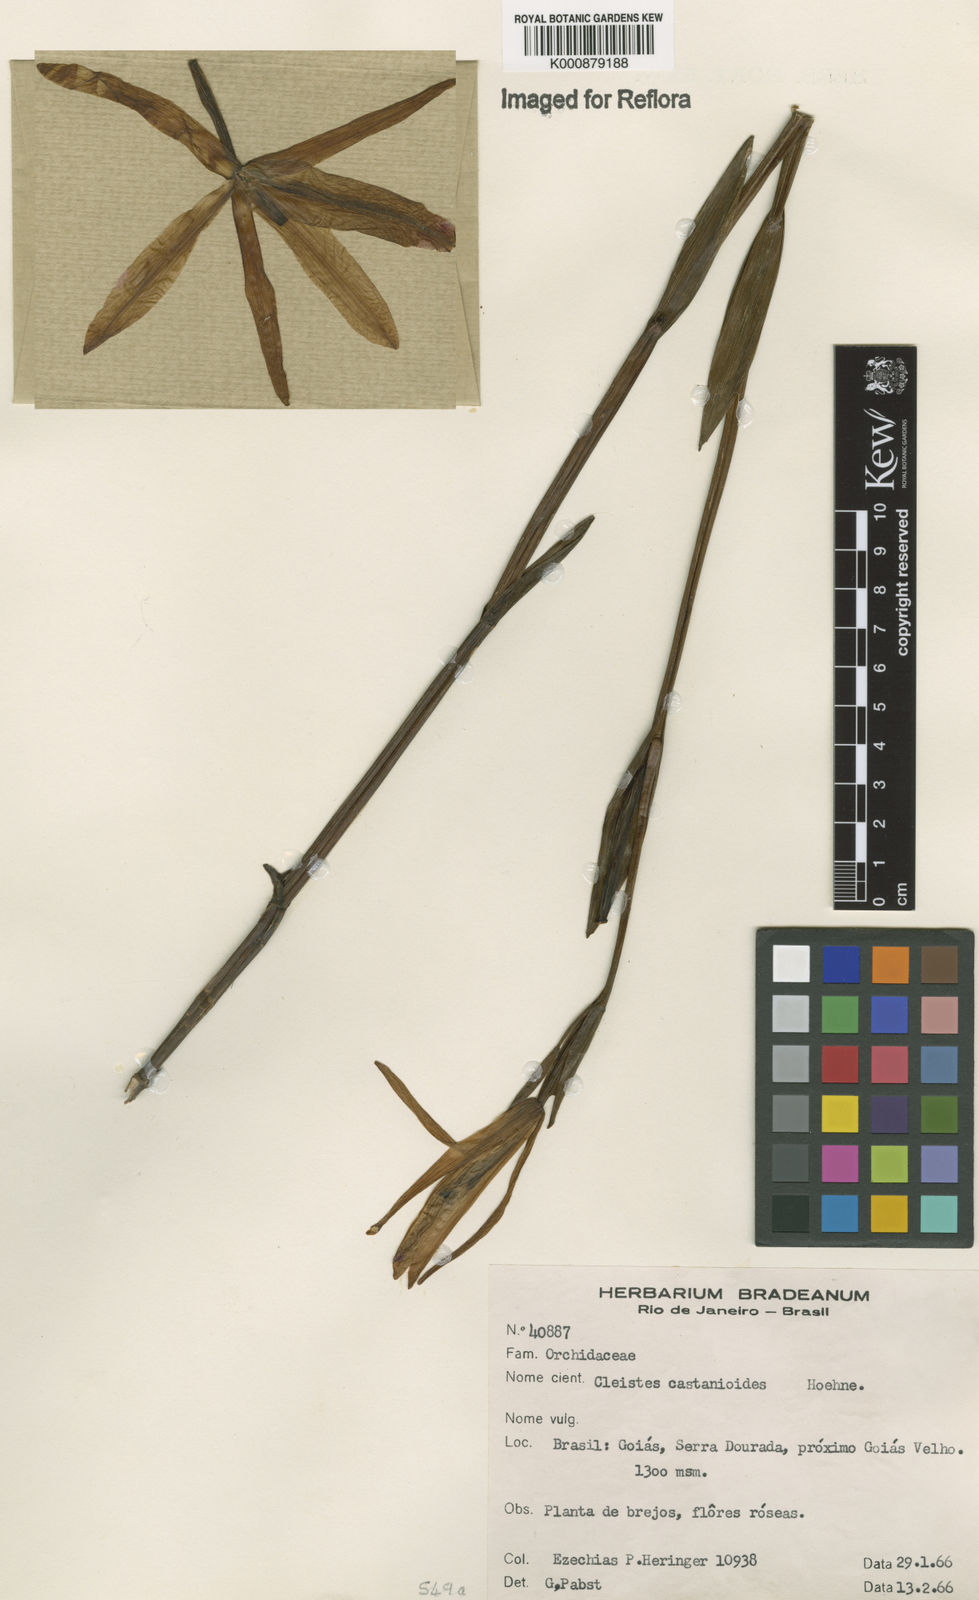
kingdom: Plantae
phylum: Tracheophyta
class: Liliopsida
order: Asparagales
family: Orchidaceae
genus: Cleistes
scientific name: Cleistes rosea
